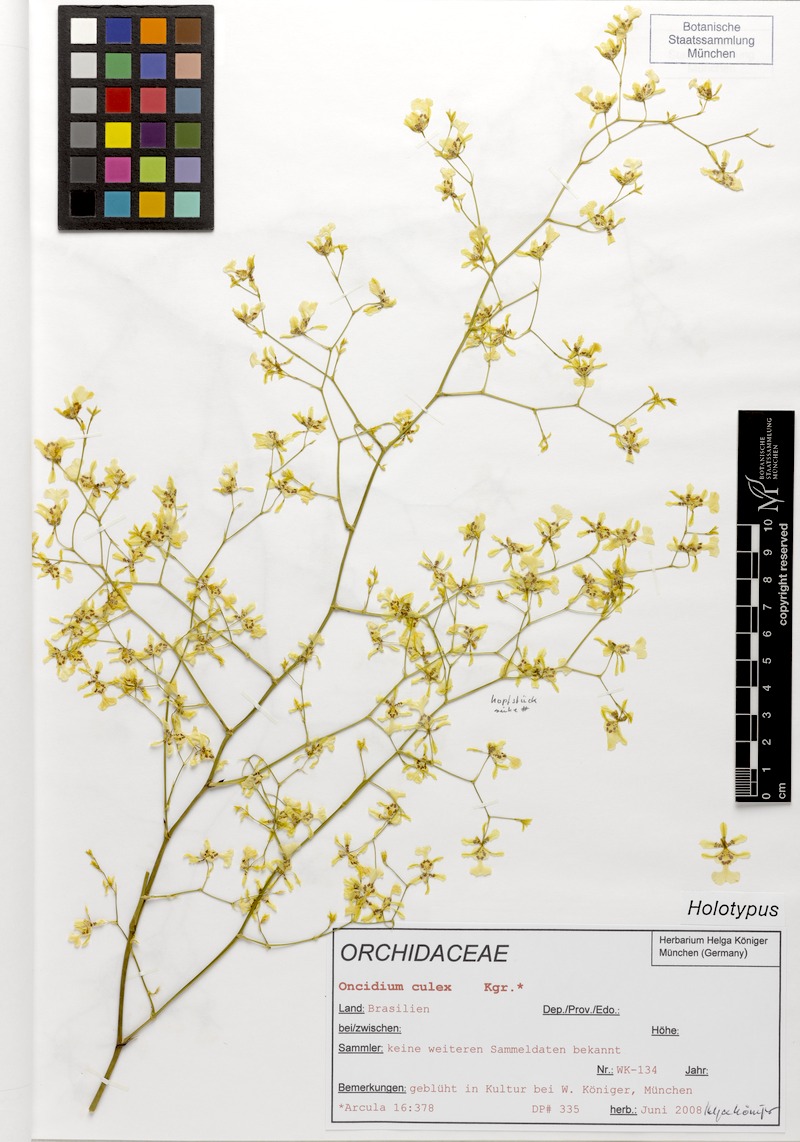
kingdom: Plantae
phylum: Tracheophyta
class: Liliopsida
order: Asparagales
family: Orchidaceae
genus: Oncidium
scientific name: Oncidium nebulosum
